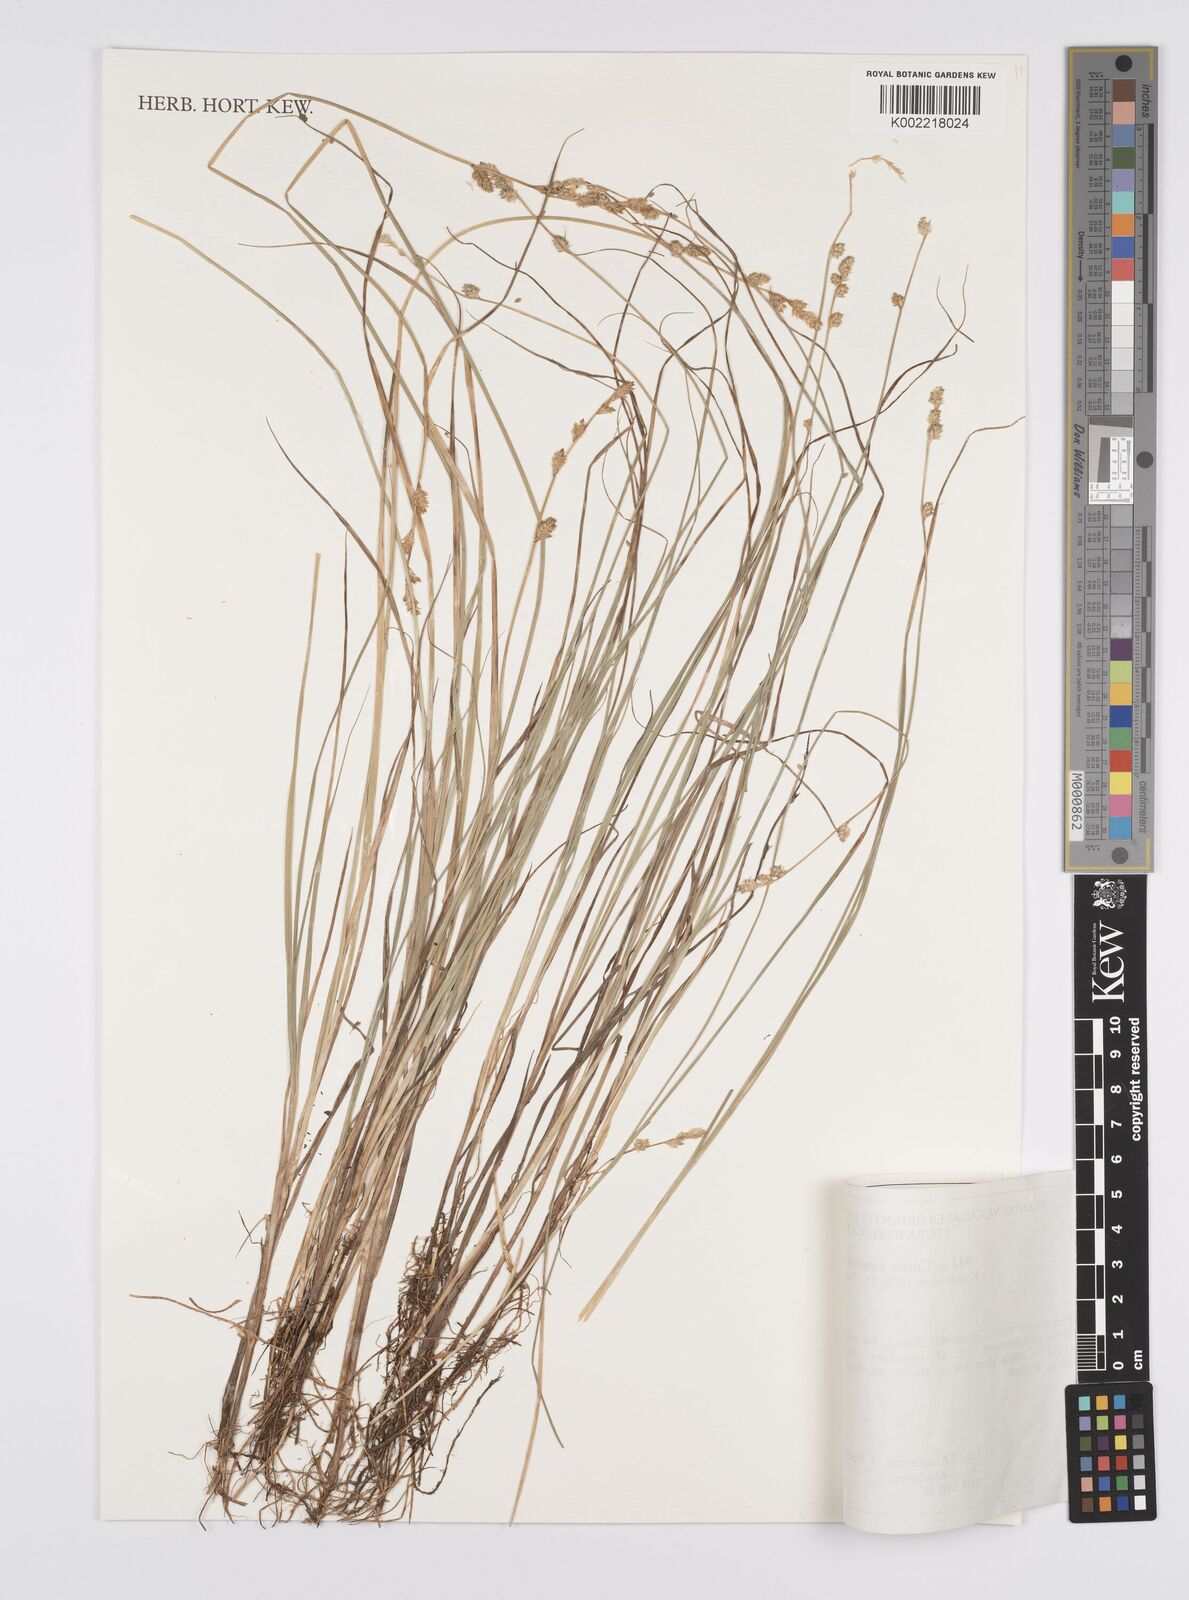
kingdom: Plantae
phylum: Tracheophyta
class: Liliopsida
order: Poales
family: Cyperaceae
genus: Carex
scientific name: Carex canescens
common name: White sedge
